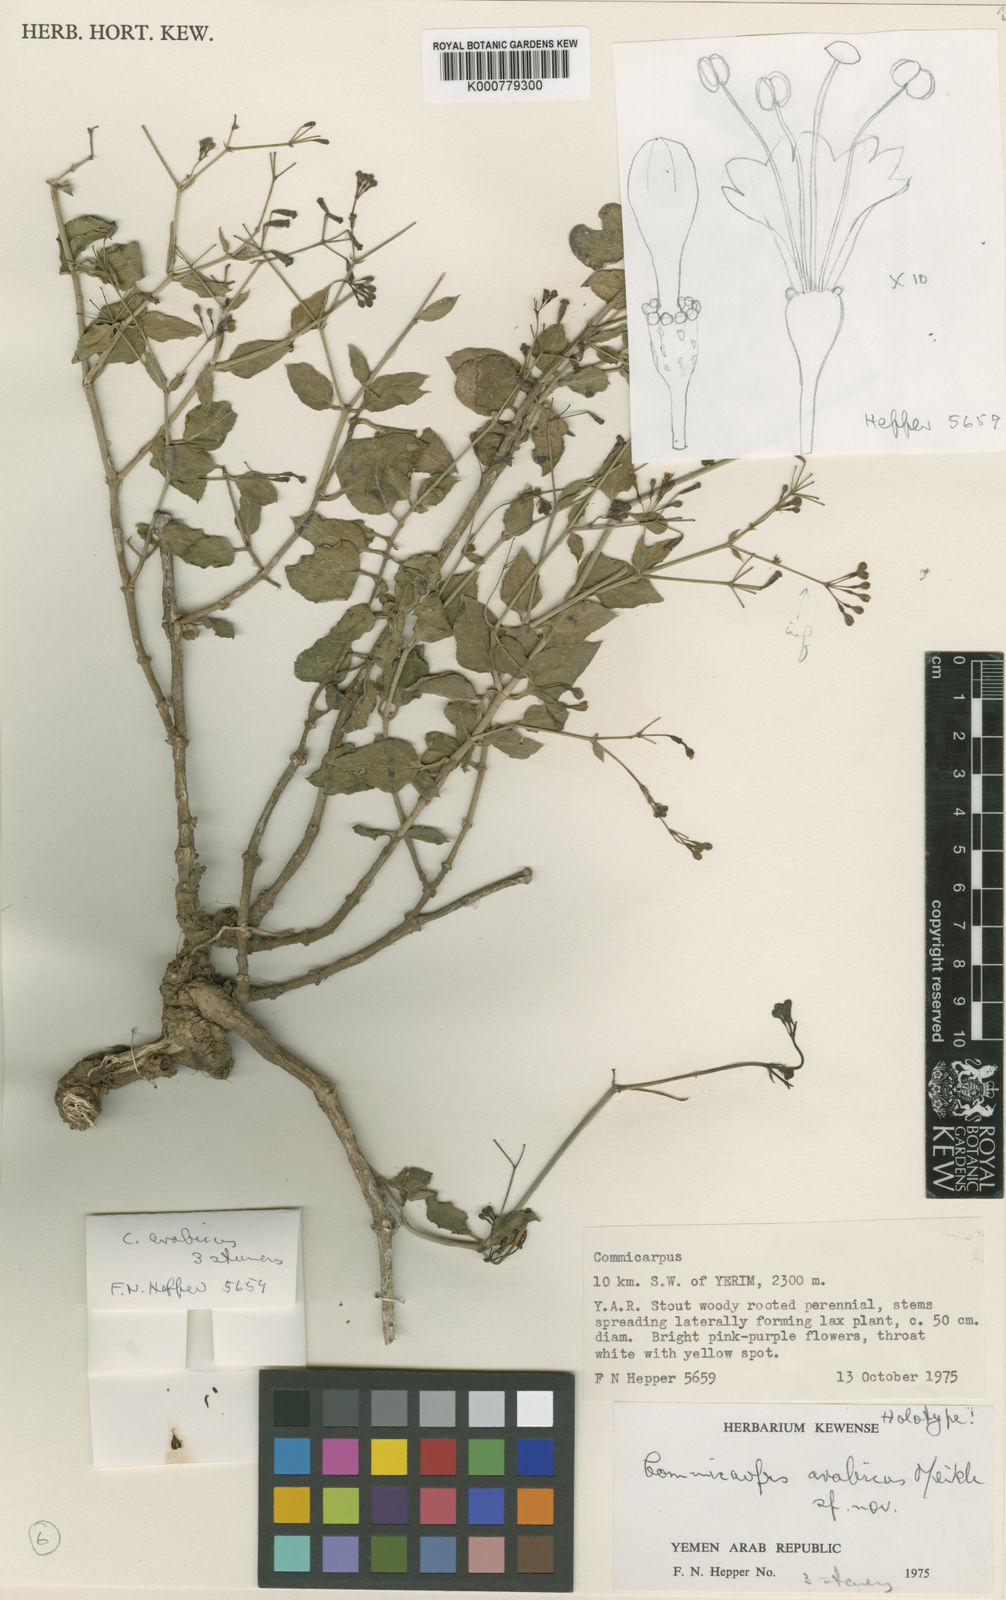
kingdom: Plantae
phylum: Tracheophyta
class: Magnoliopsida
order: Caryophyllales
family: Nyctaginaceae
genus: Commicarpus
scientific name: Commicarpus arabicus
